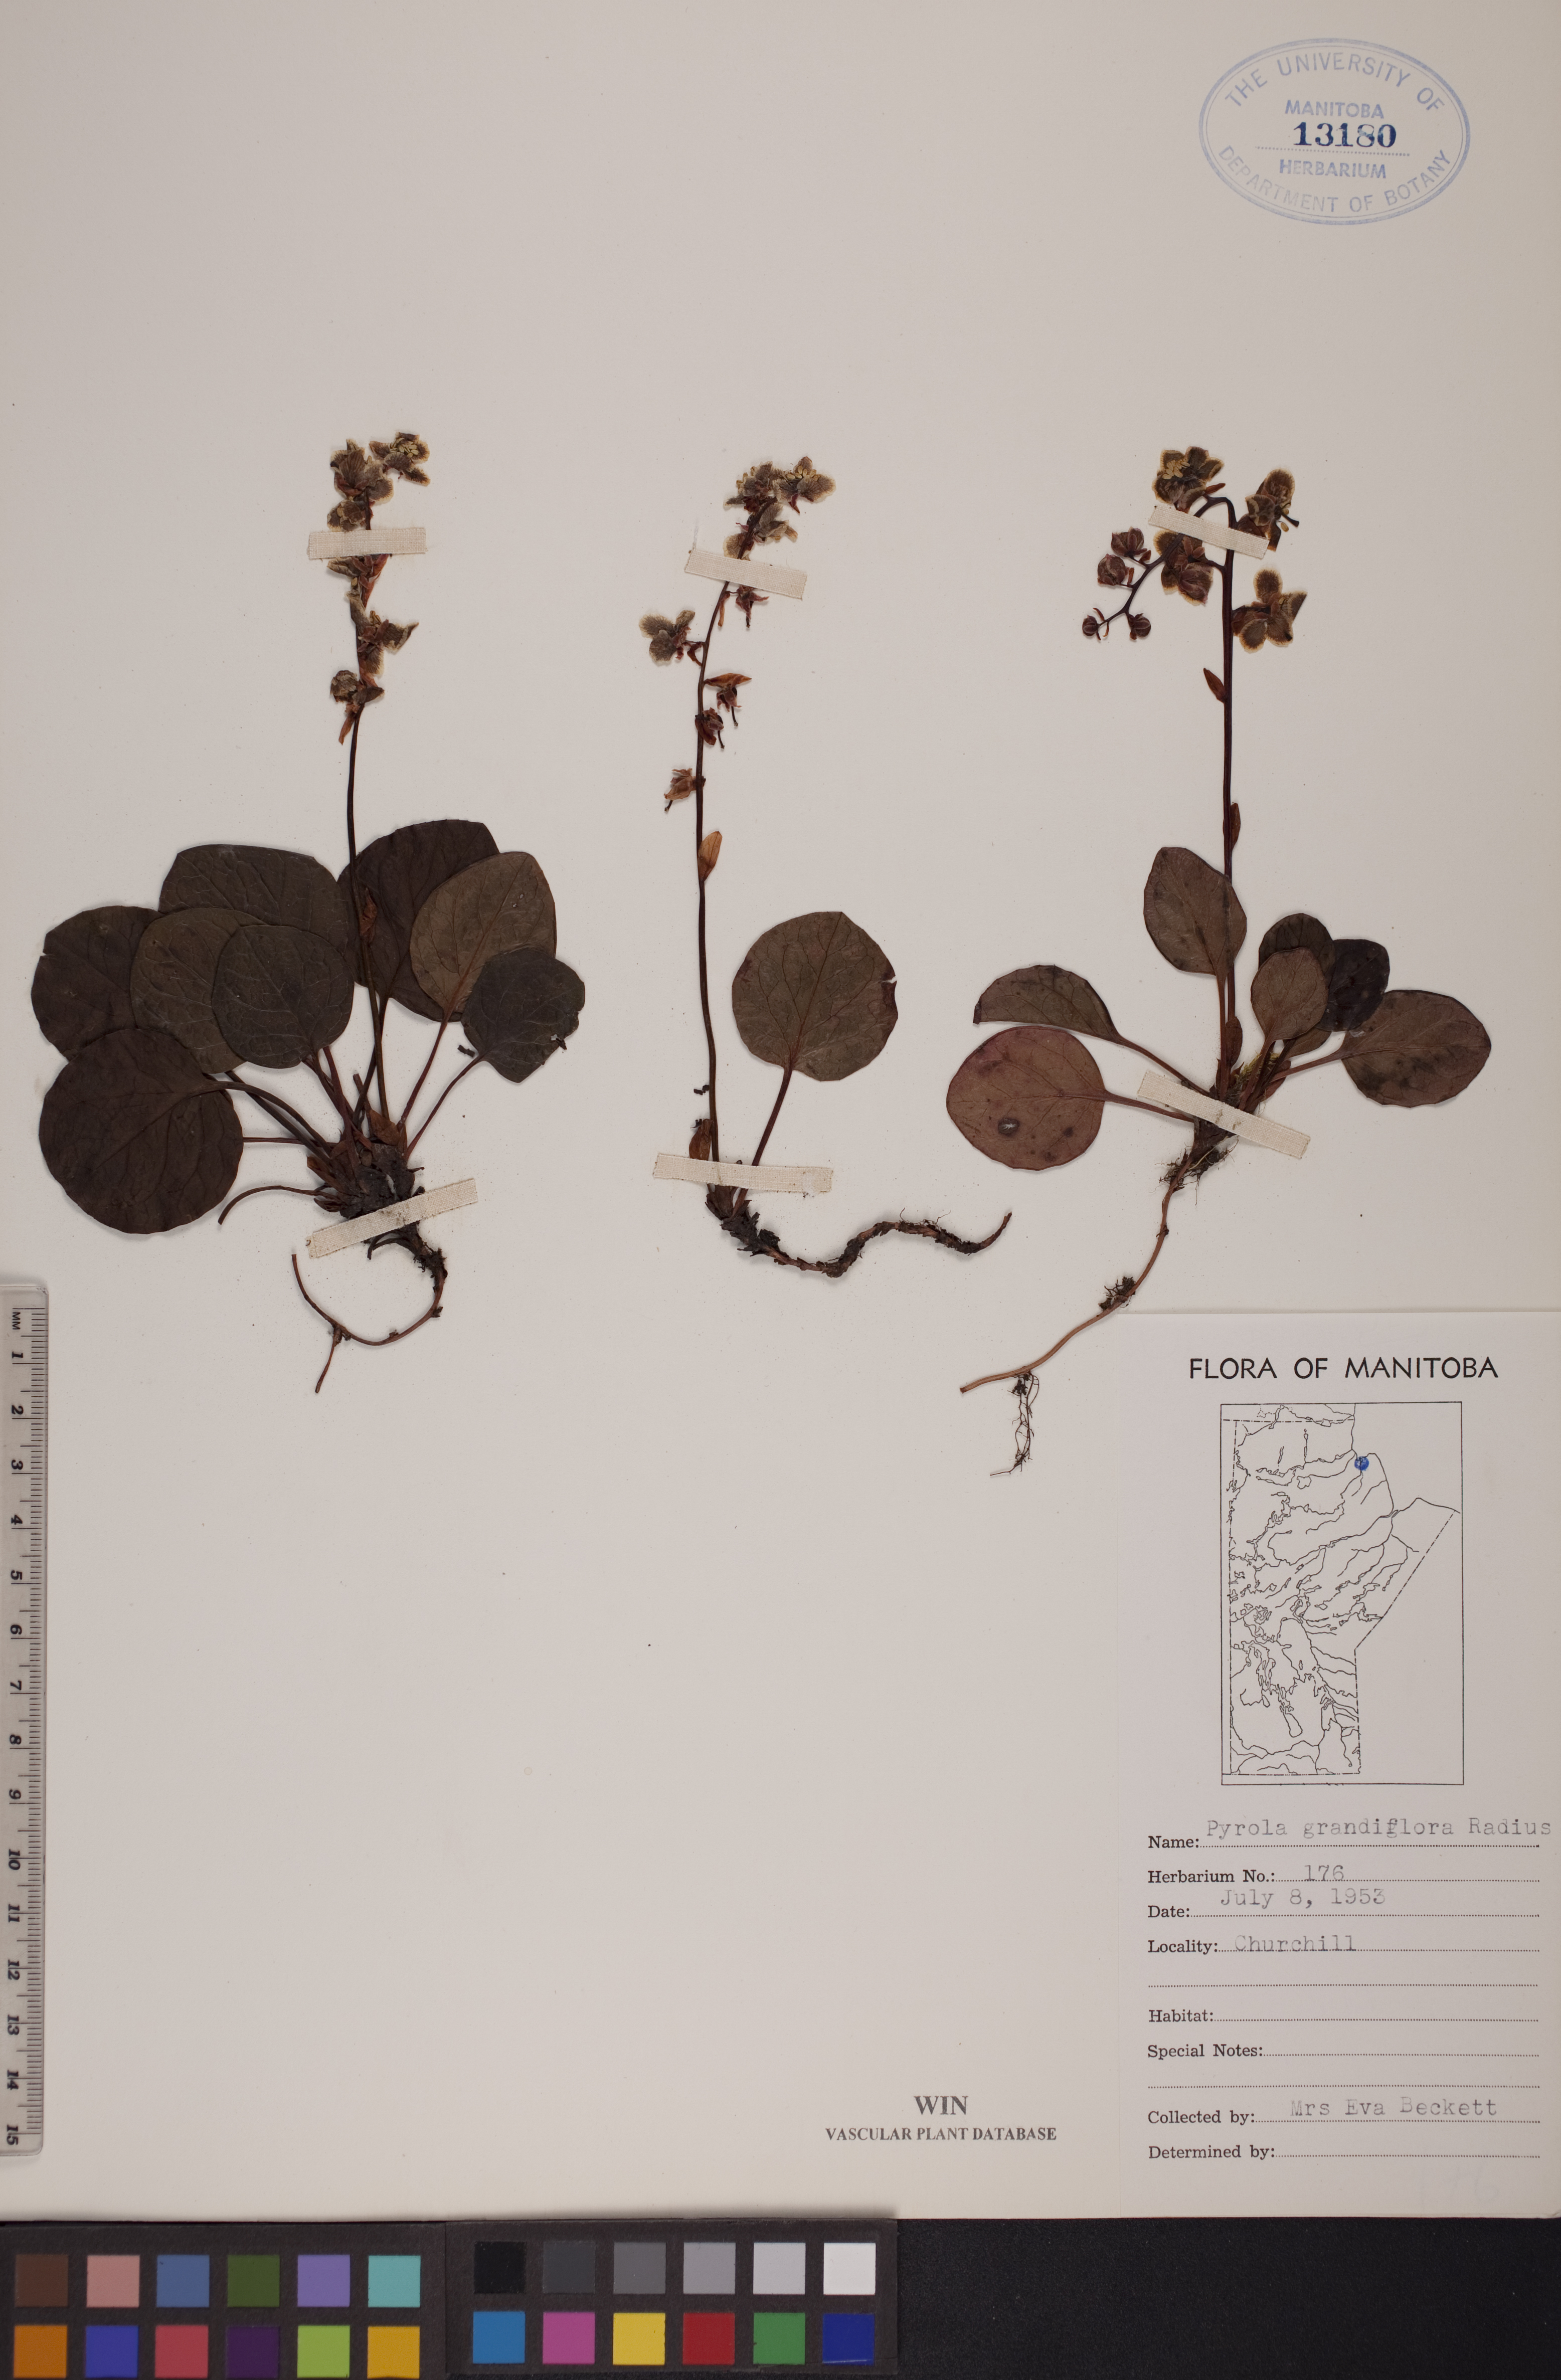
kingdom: Plantae
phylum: Tracheophyta
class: Magnoliopsida
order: Ericales
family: Ericaceae
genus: Pyrola
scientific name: Pyrola grandiflora
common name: Arctic pyrola
